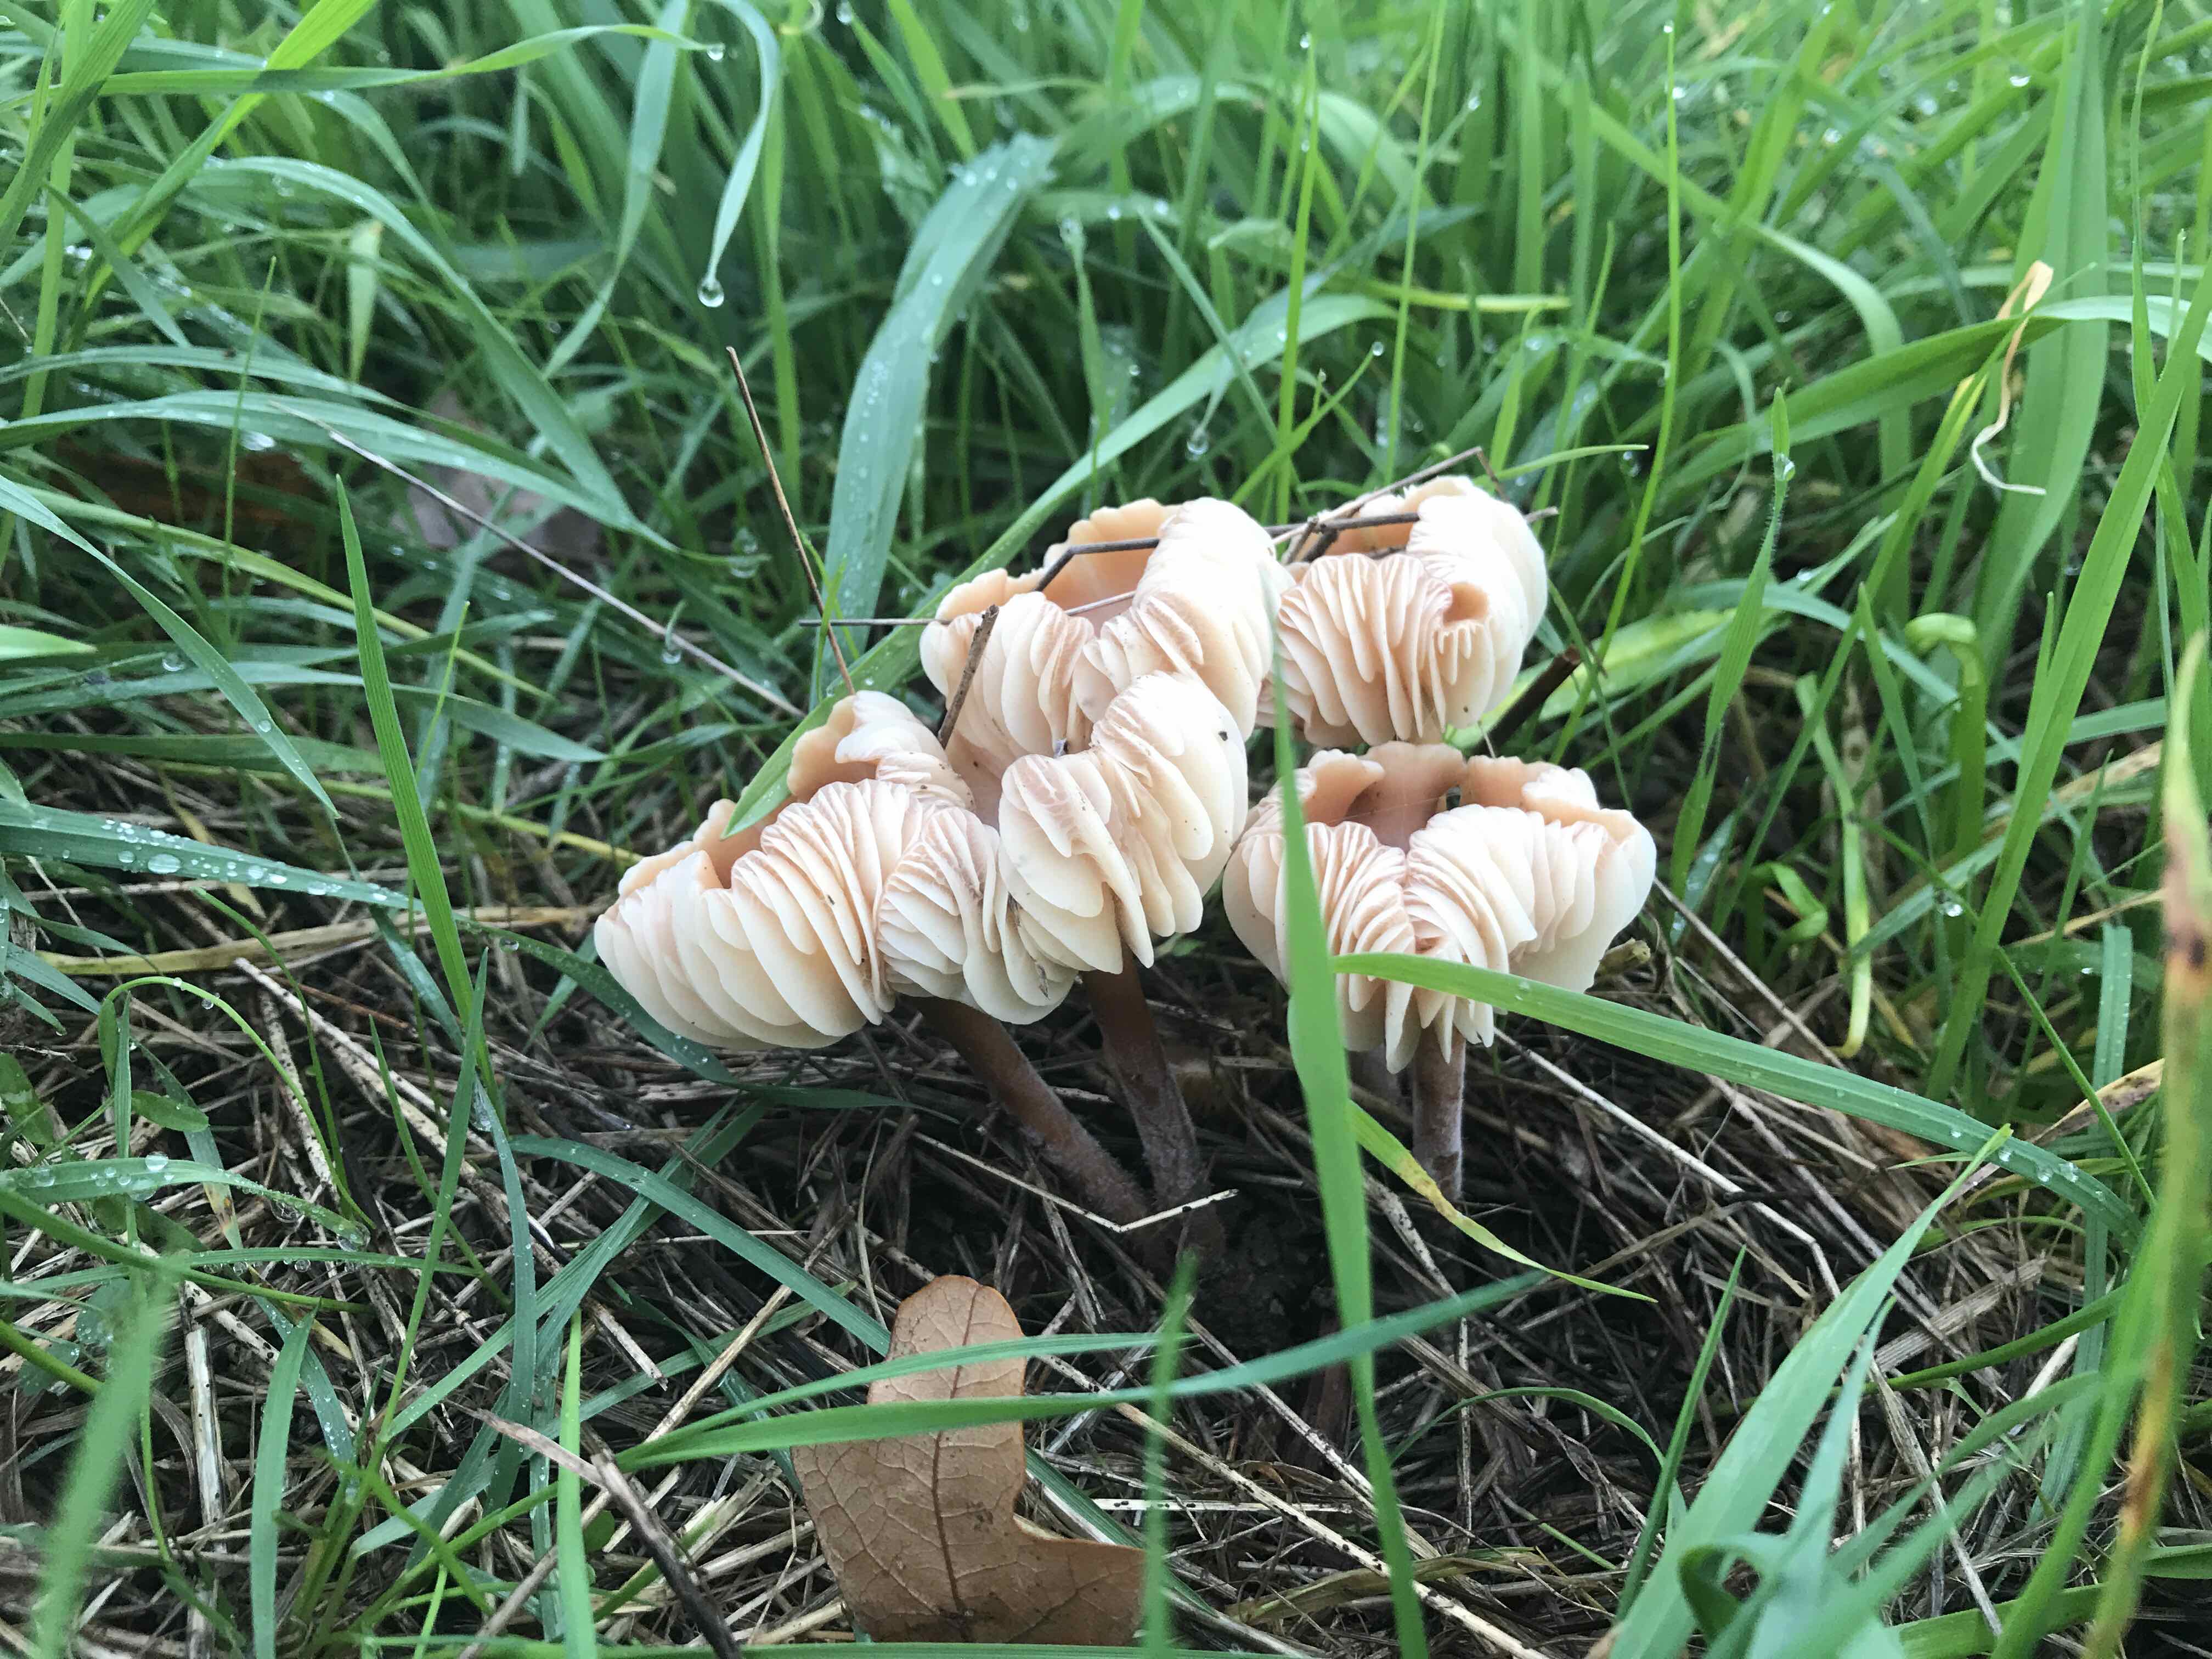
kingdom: Fungi
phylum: Basidiomycota
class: Agaricomycetes
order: Agaricales
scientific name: Agaricales
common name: champignonordenen
